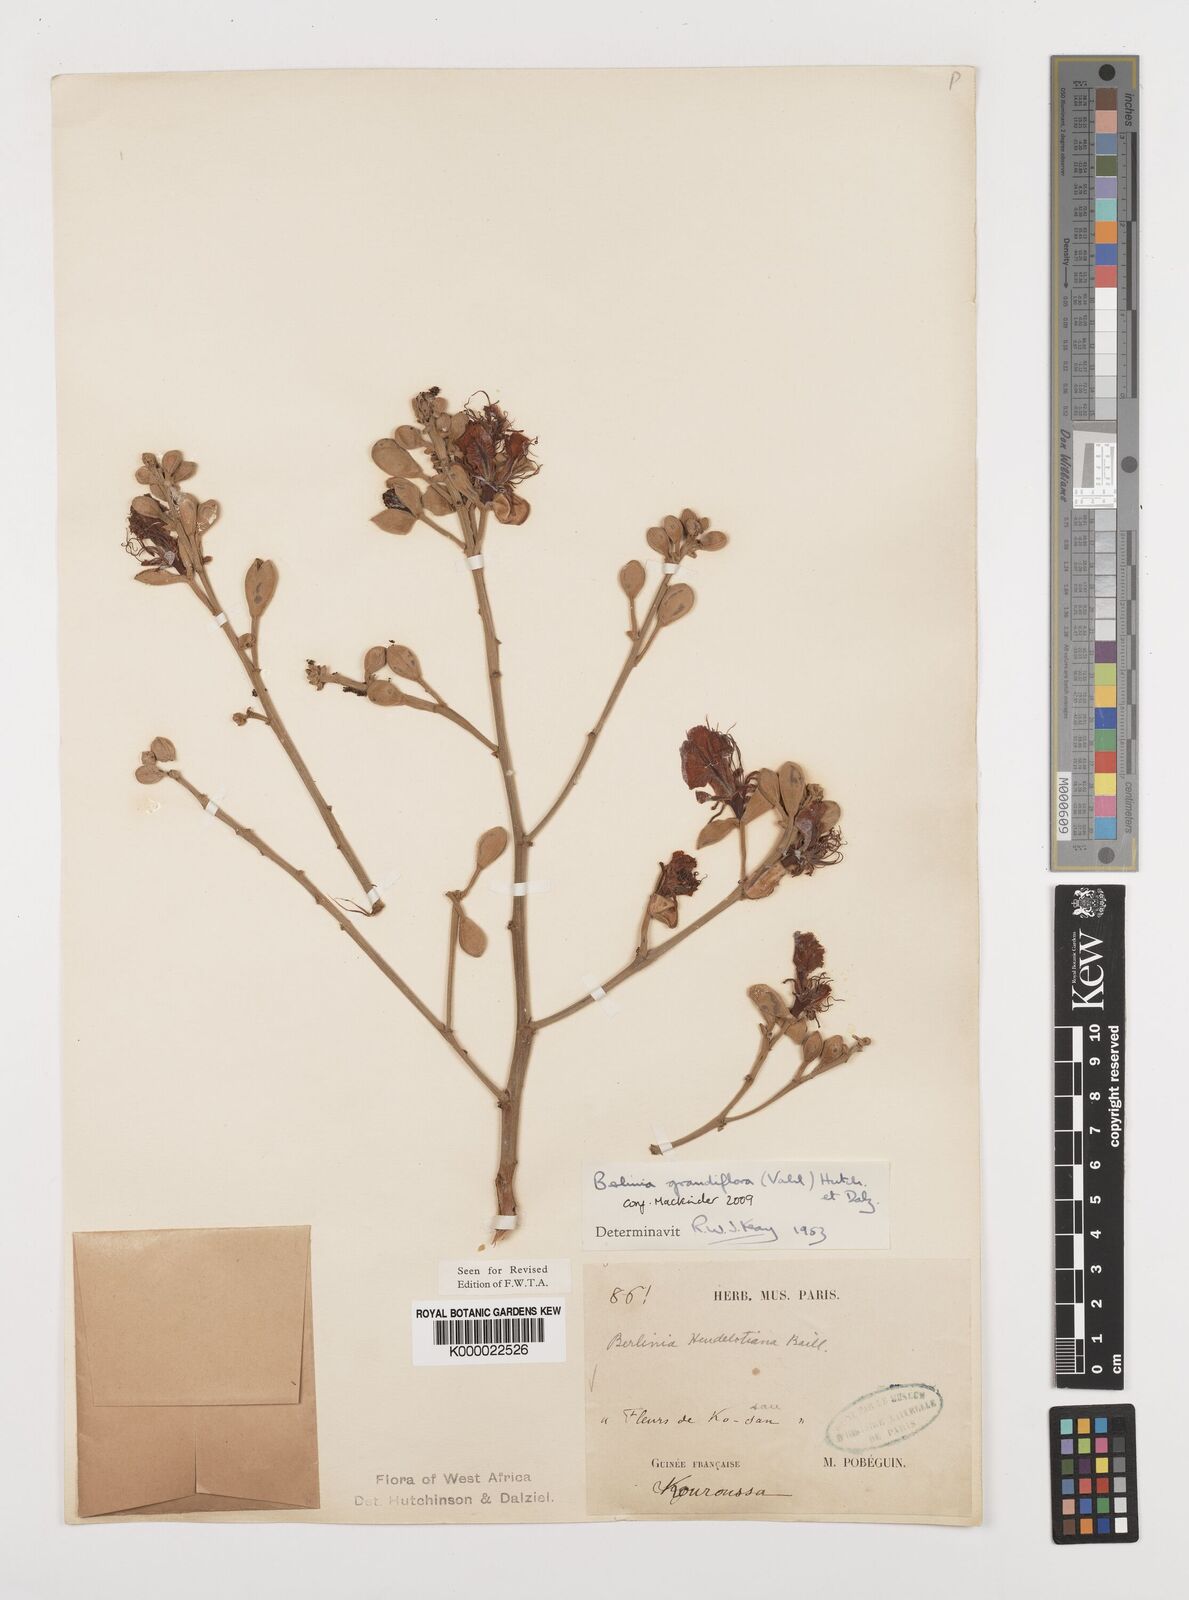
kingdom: Plantae
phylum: Tracheophyta
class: Magnoliopsida
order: Fabales
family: Fabaceae
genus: Berlinia
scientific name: Berlinia grandiflora
